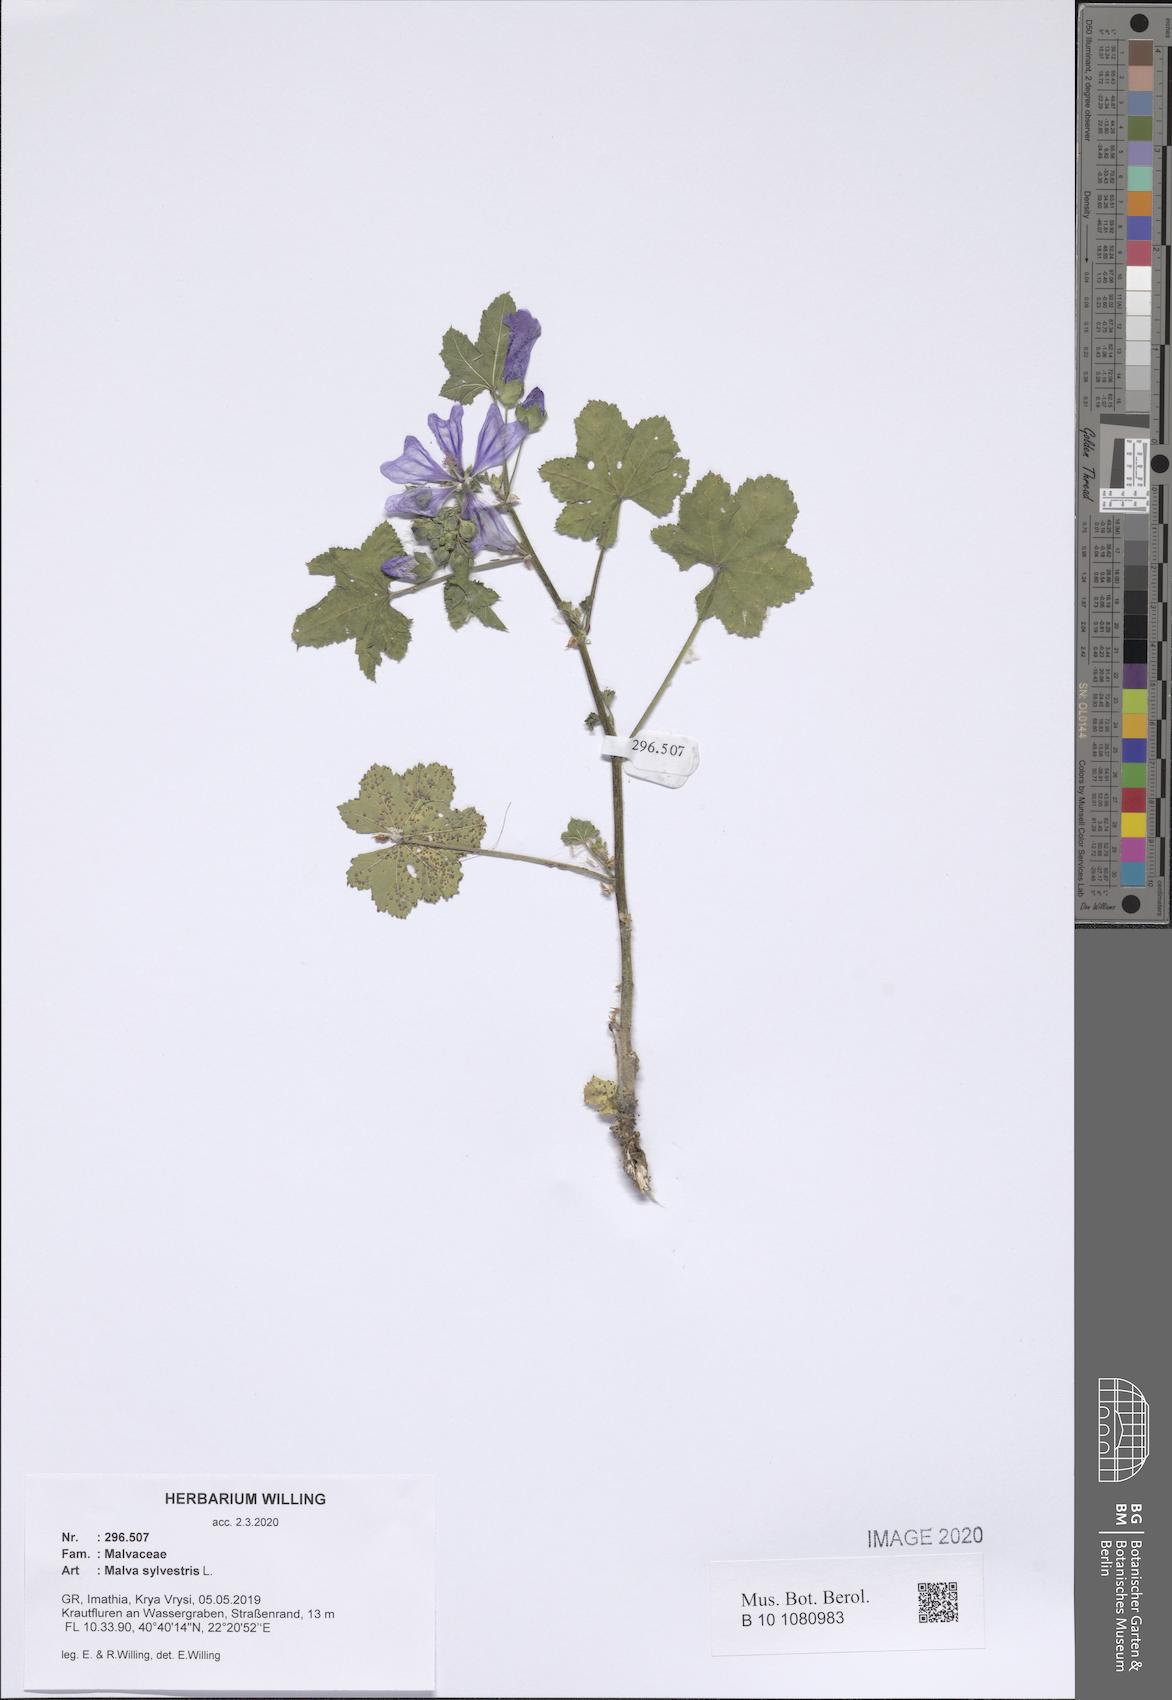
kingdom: Plantae
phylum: Tracheophyta
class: Magnoliopsida
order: Malvales
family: Malvaceae
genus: Malva
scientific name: Malva sylvestris
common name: Common mallow
